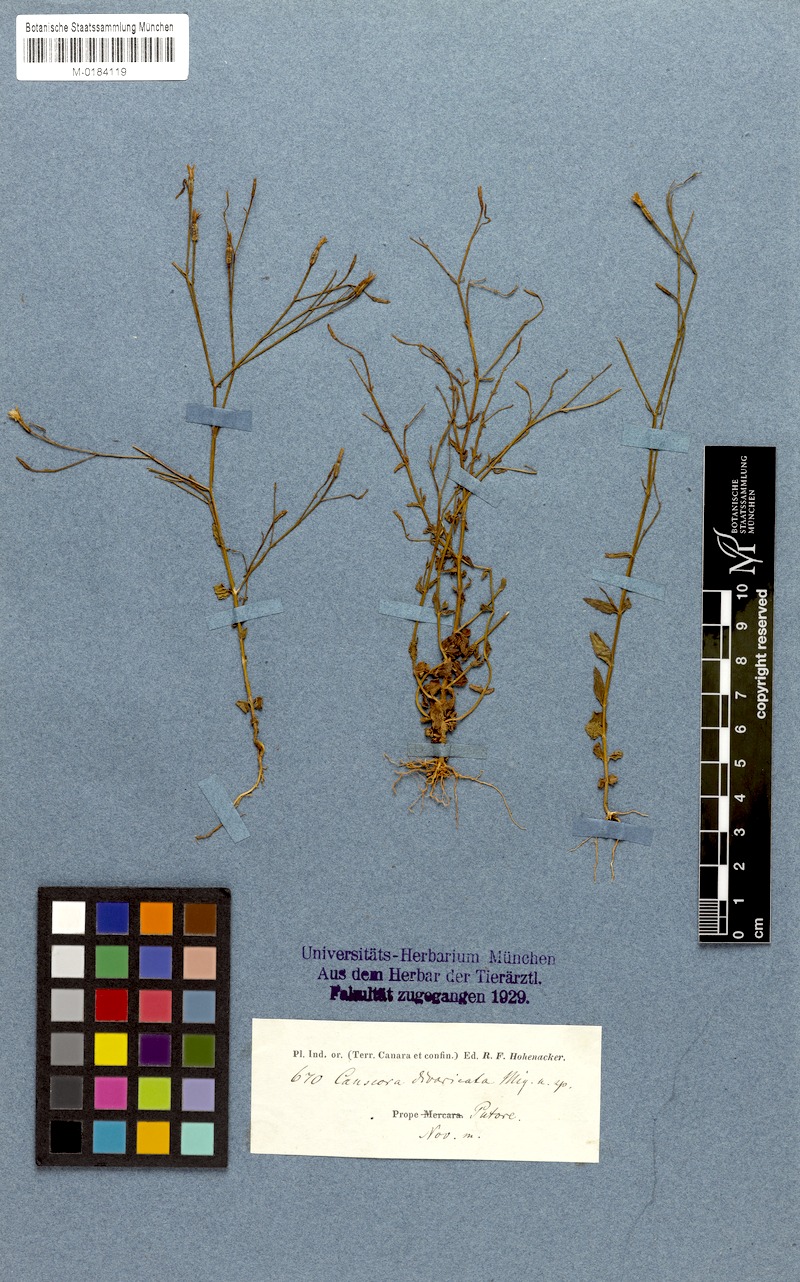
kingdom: Plantae
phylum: Tracheophyta
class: Magnoliopsida
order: Gentianales
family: Gentianaceae
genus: Canscora
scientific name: Canscora diffusa
